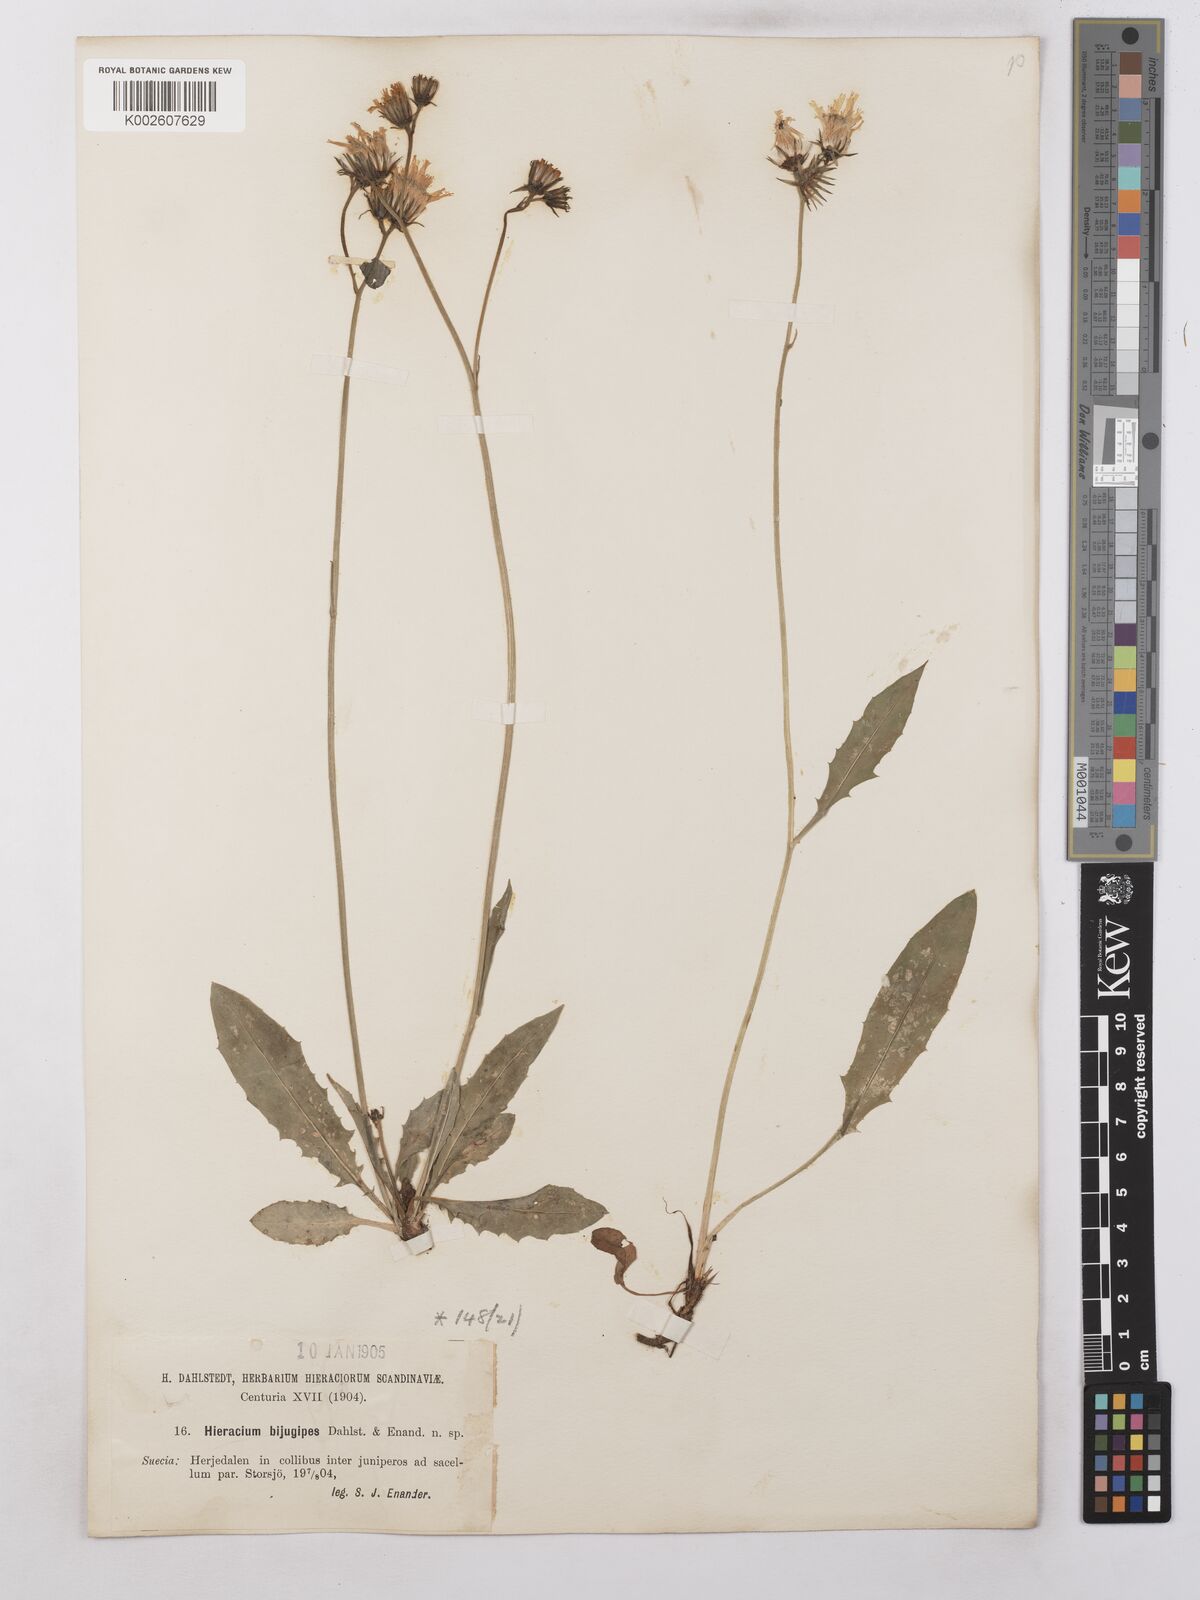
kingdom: Plantae
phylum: Tracheophyta
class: Magnoliopsida
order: Asterales
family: Asteraceae
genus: Hieracium
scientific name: Hieracium subramosum
